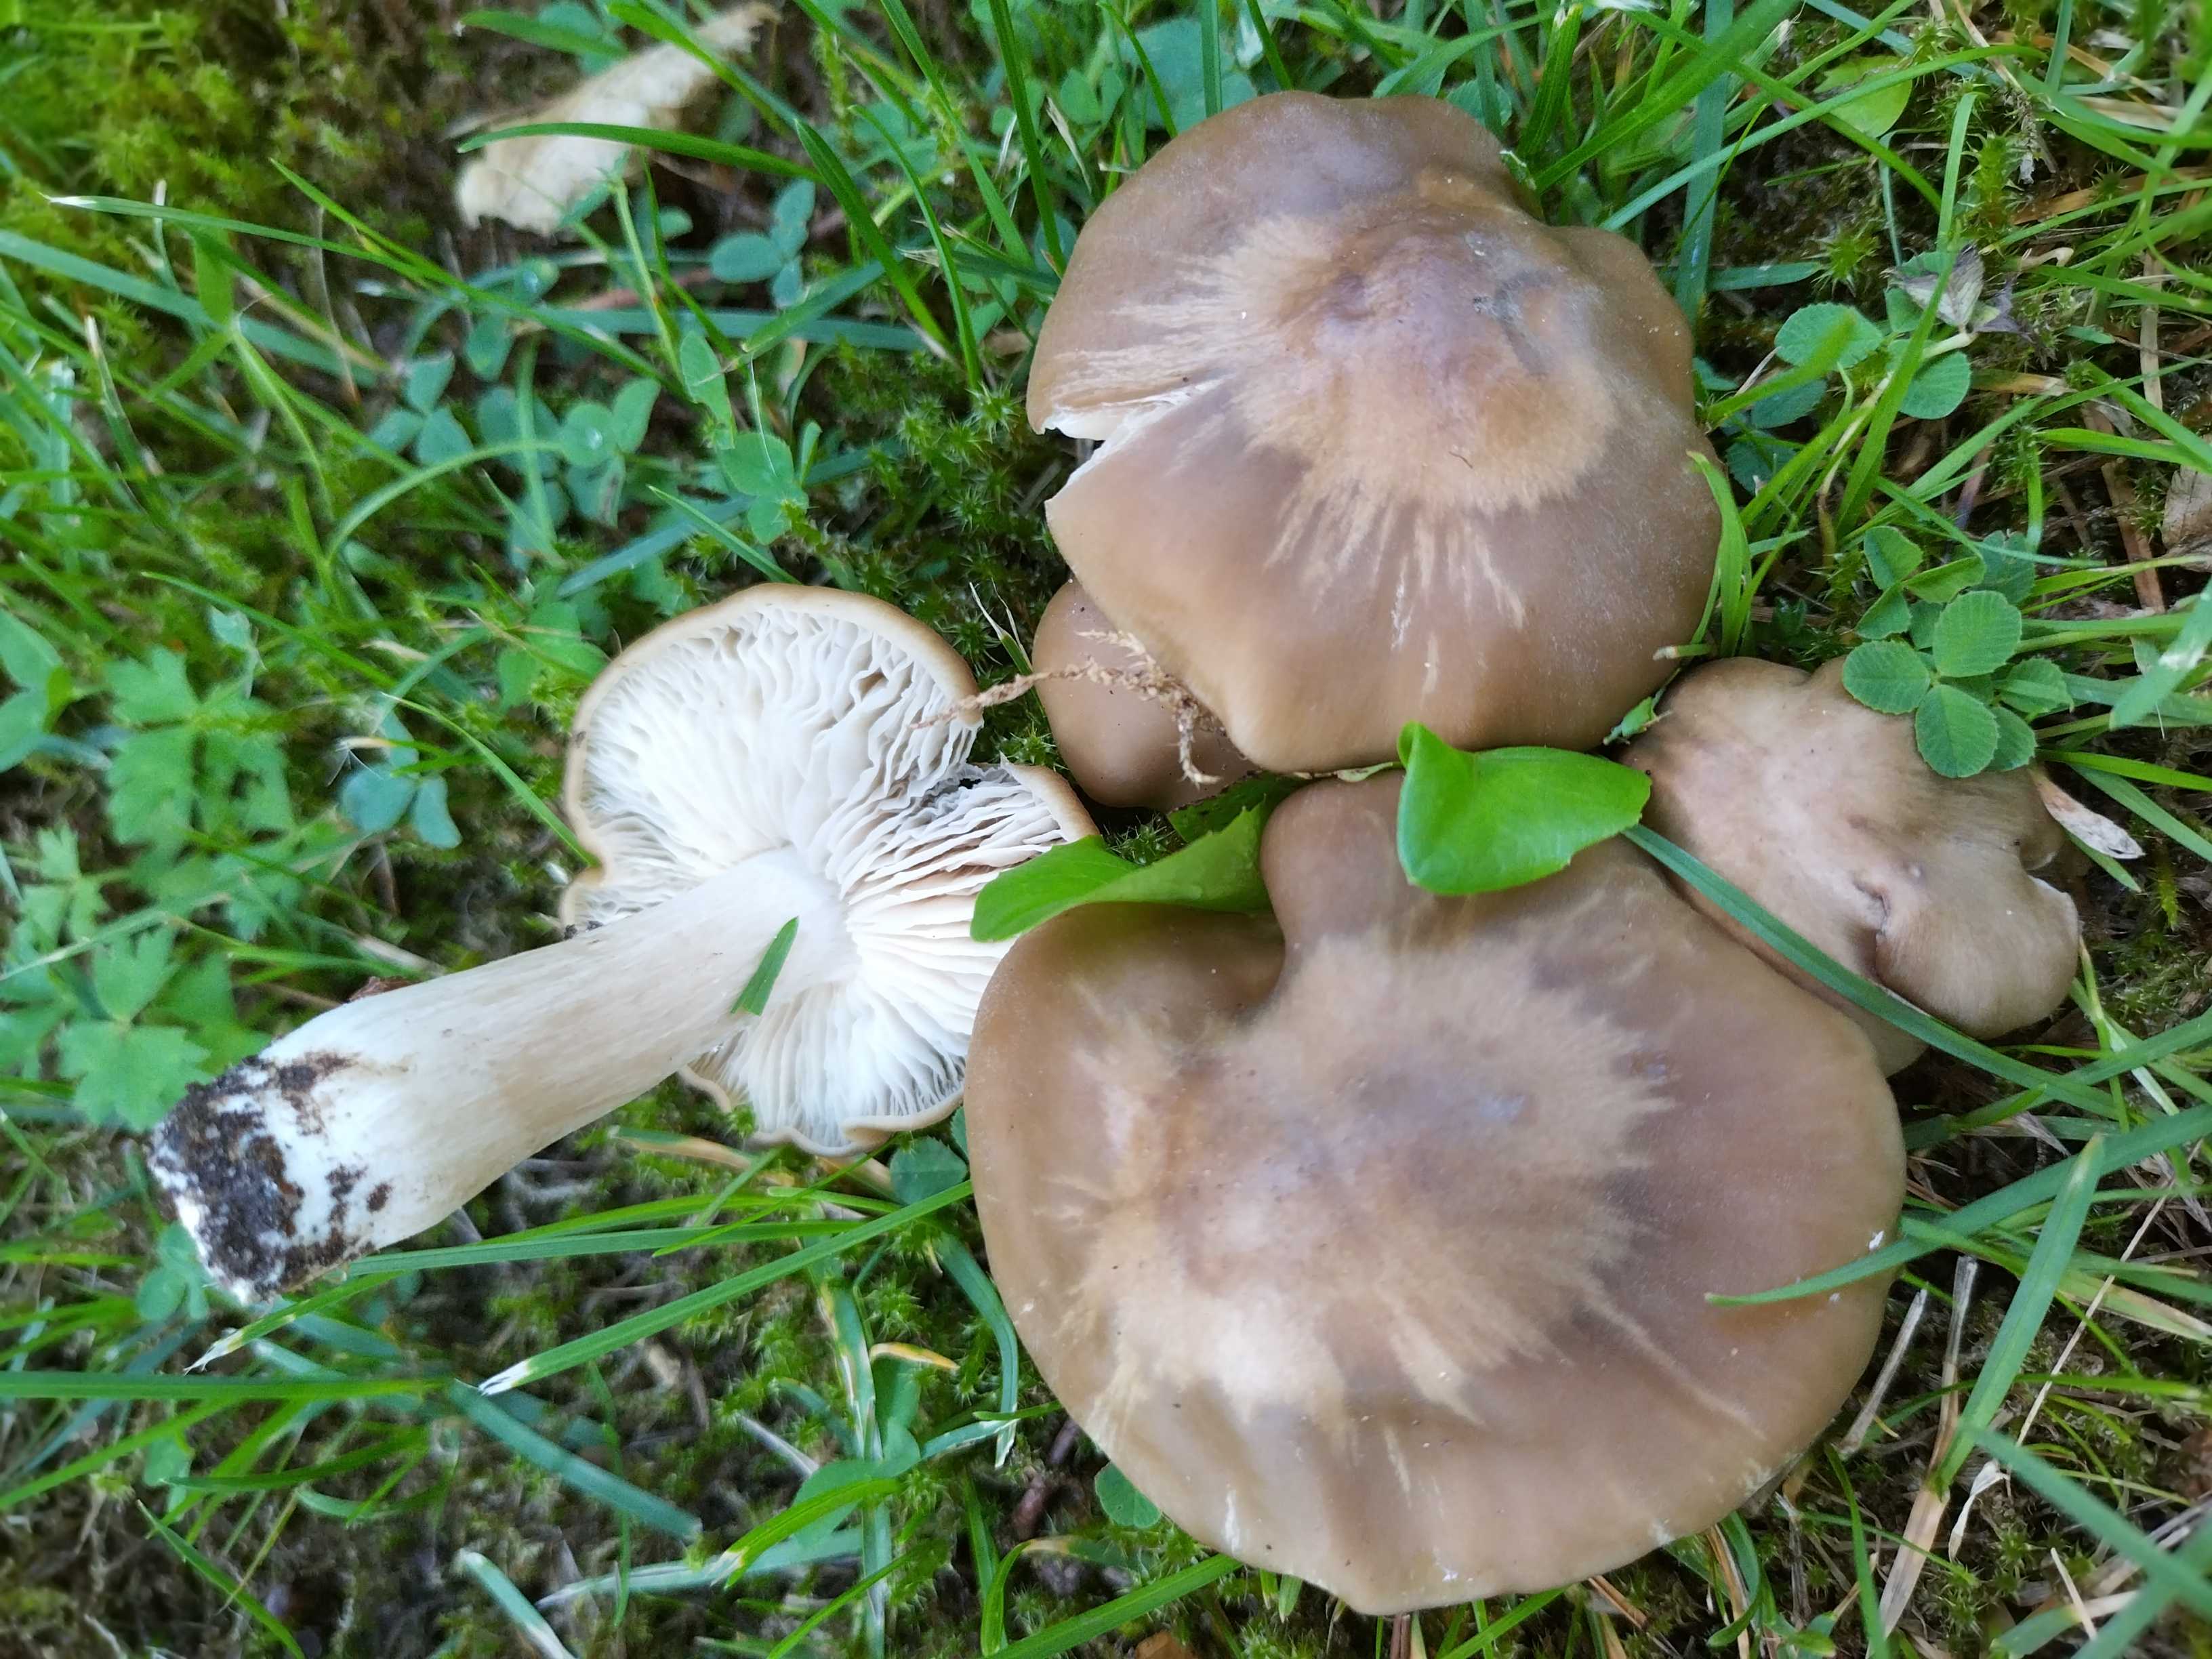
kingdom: Fungi
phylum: Basidiomycota
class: Agaricomycetes
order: Agaricales
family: Entolomataceae
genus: Entoloma
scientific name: Entoloma lividoalbum
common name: lysstokket rødblad
